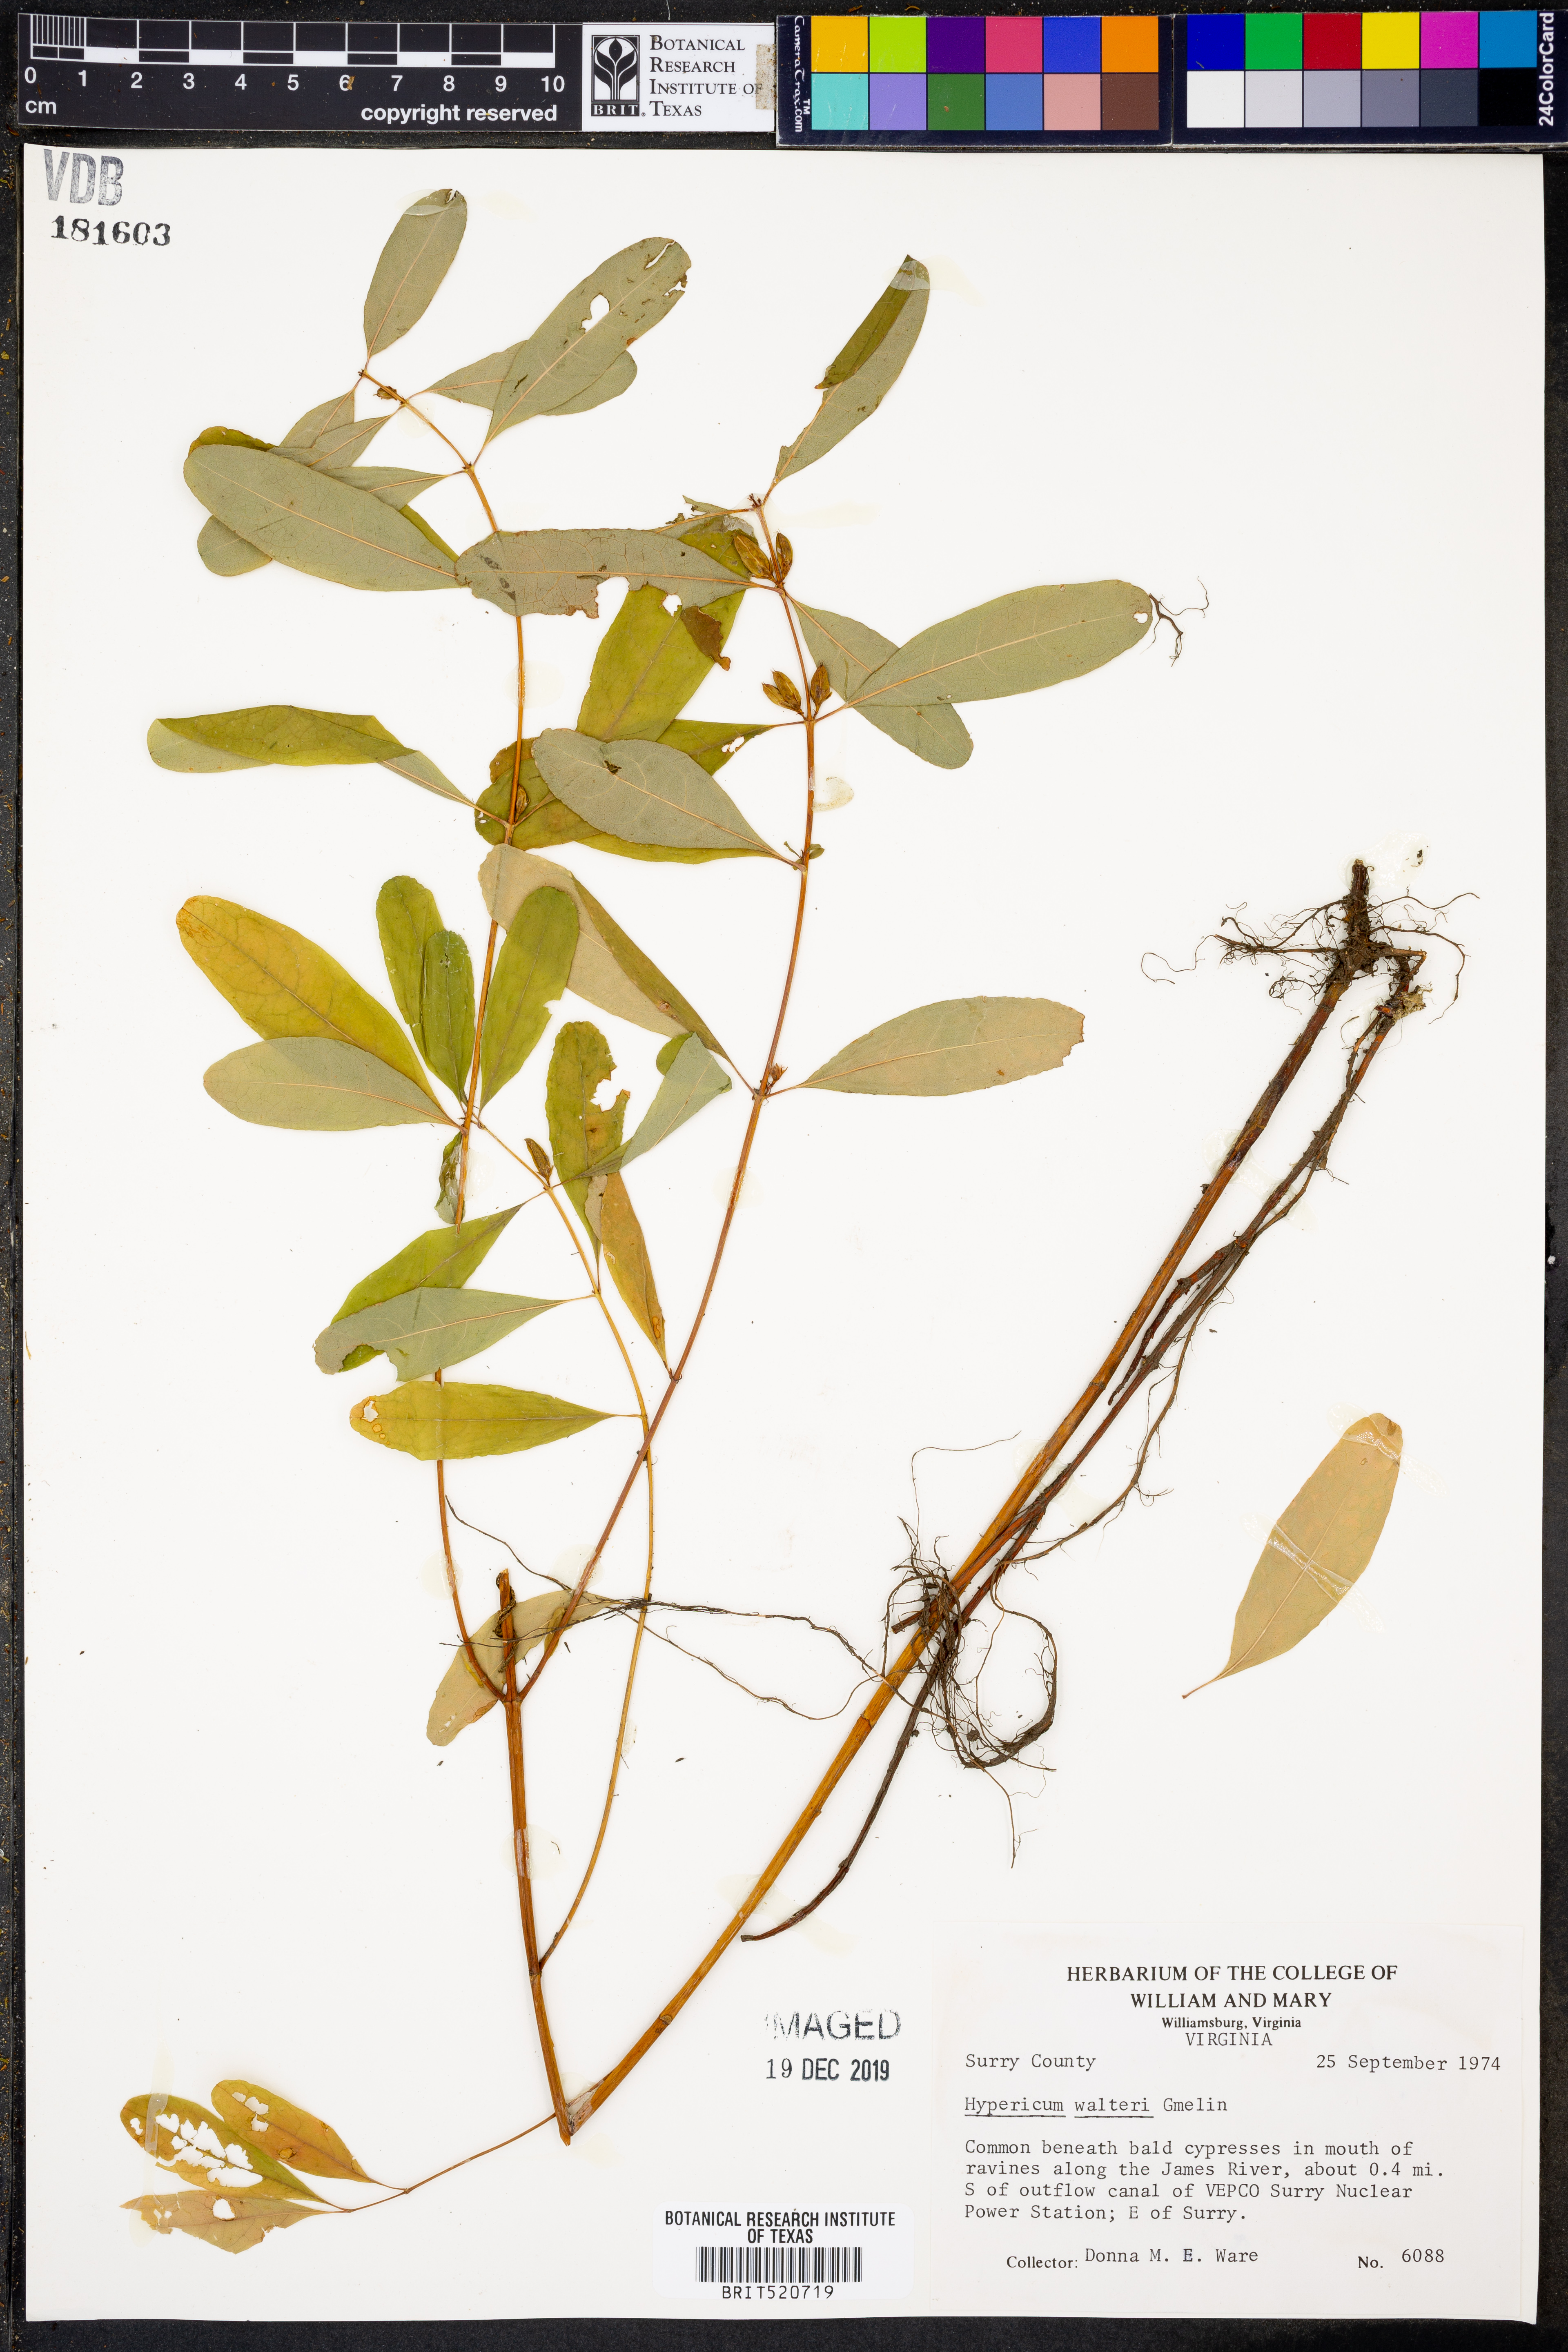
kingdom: Plantae
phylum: Tracheophyta
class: Magnoliopsida
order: Malpighiales
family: Hypericaceae
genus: Triadenum
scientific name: Triadenum walteri
